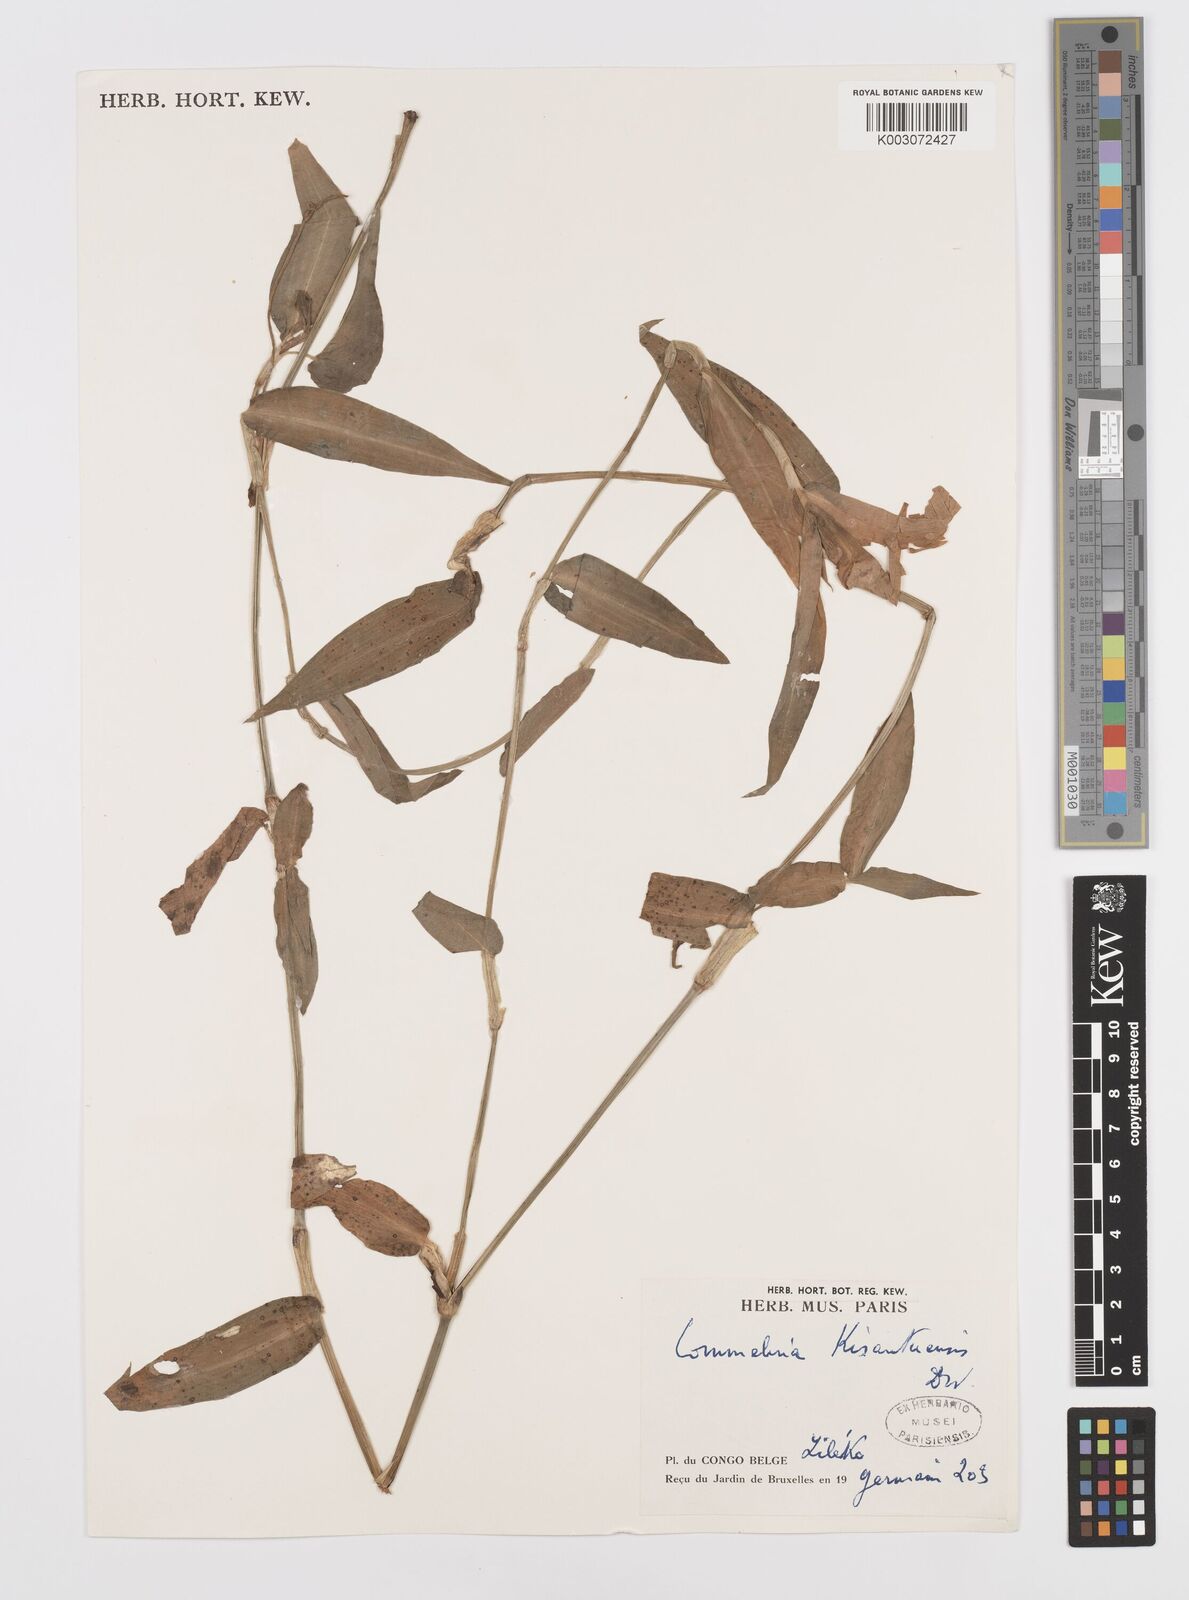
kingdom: Plantae
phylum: Tracheophyta
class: Liliopsida
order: Commelinales
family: Commelinaceae
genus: Commelina
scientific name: Commelina kisantuensis
